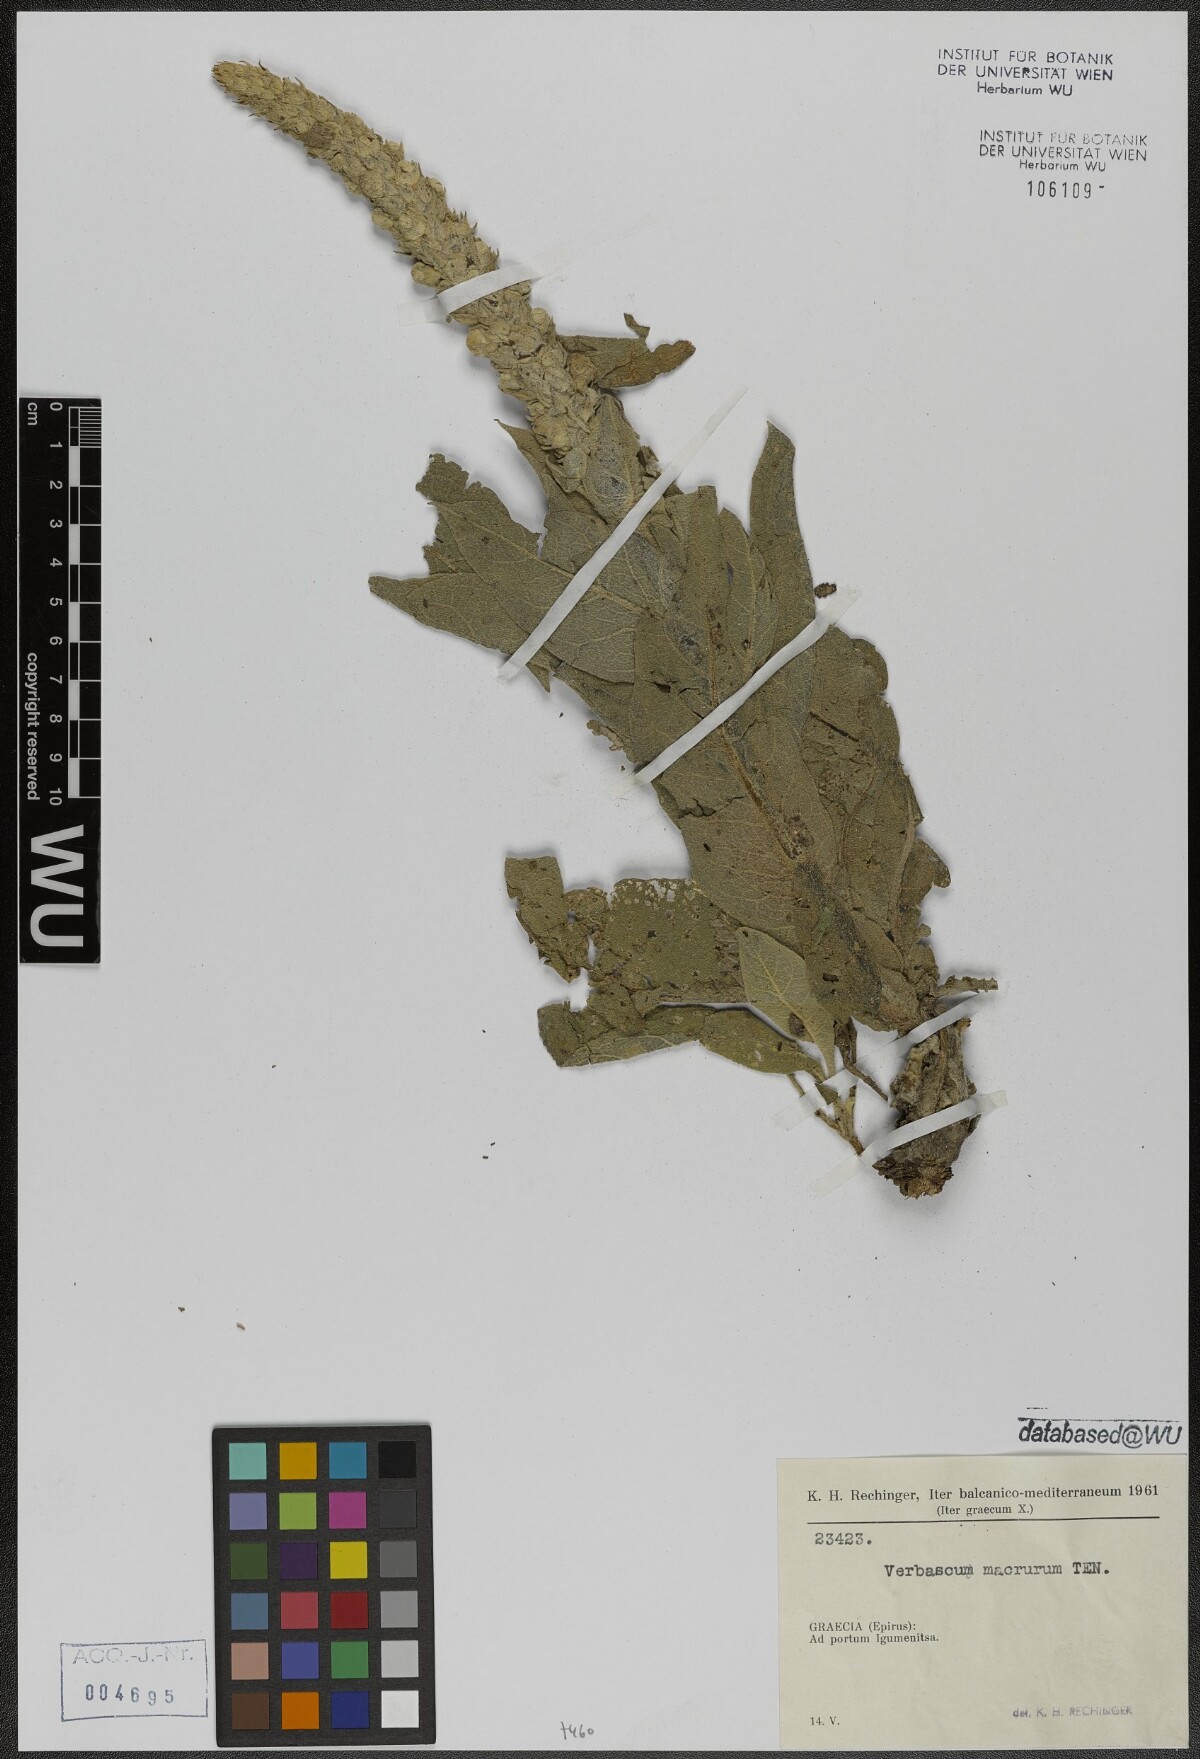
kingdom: Plantae
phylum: Tracheophyta
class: Magnoliopsida
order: Lamiales
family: Scrophulariaceae
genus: Verbascum
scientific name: Verbascum macrurum
